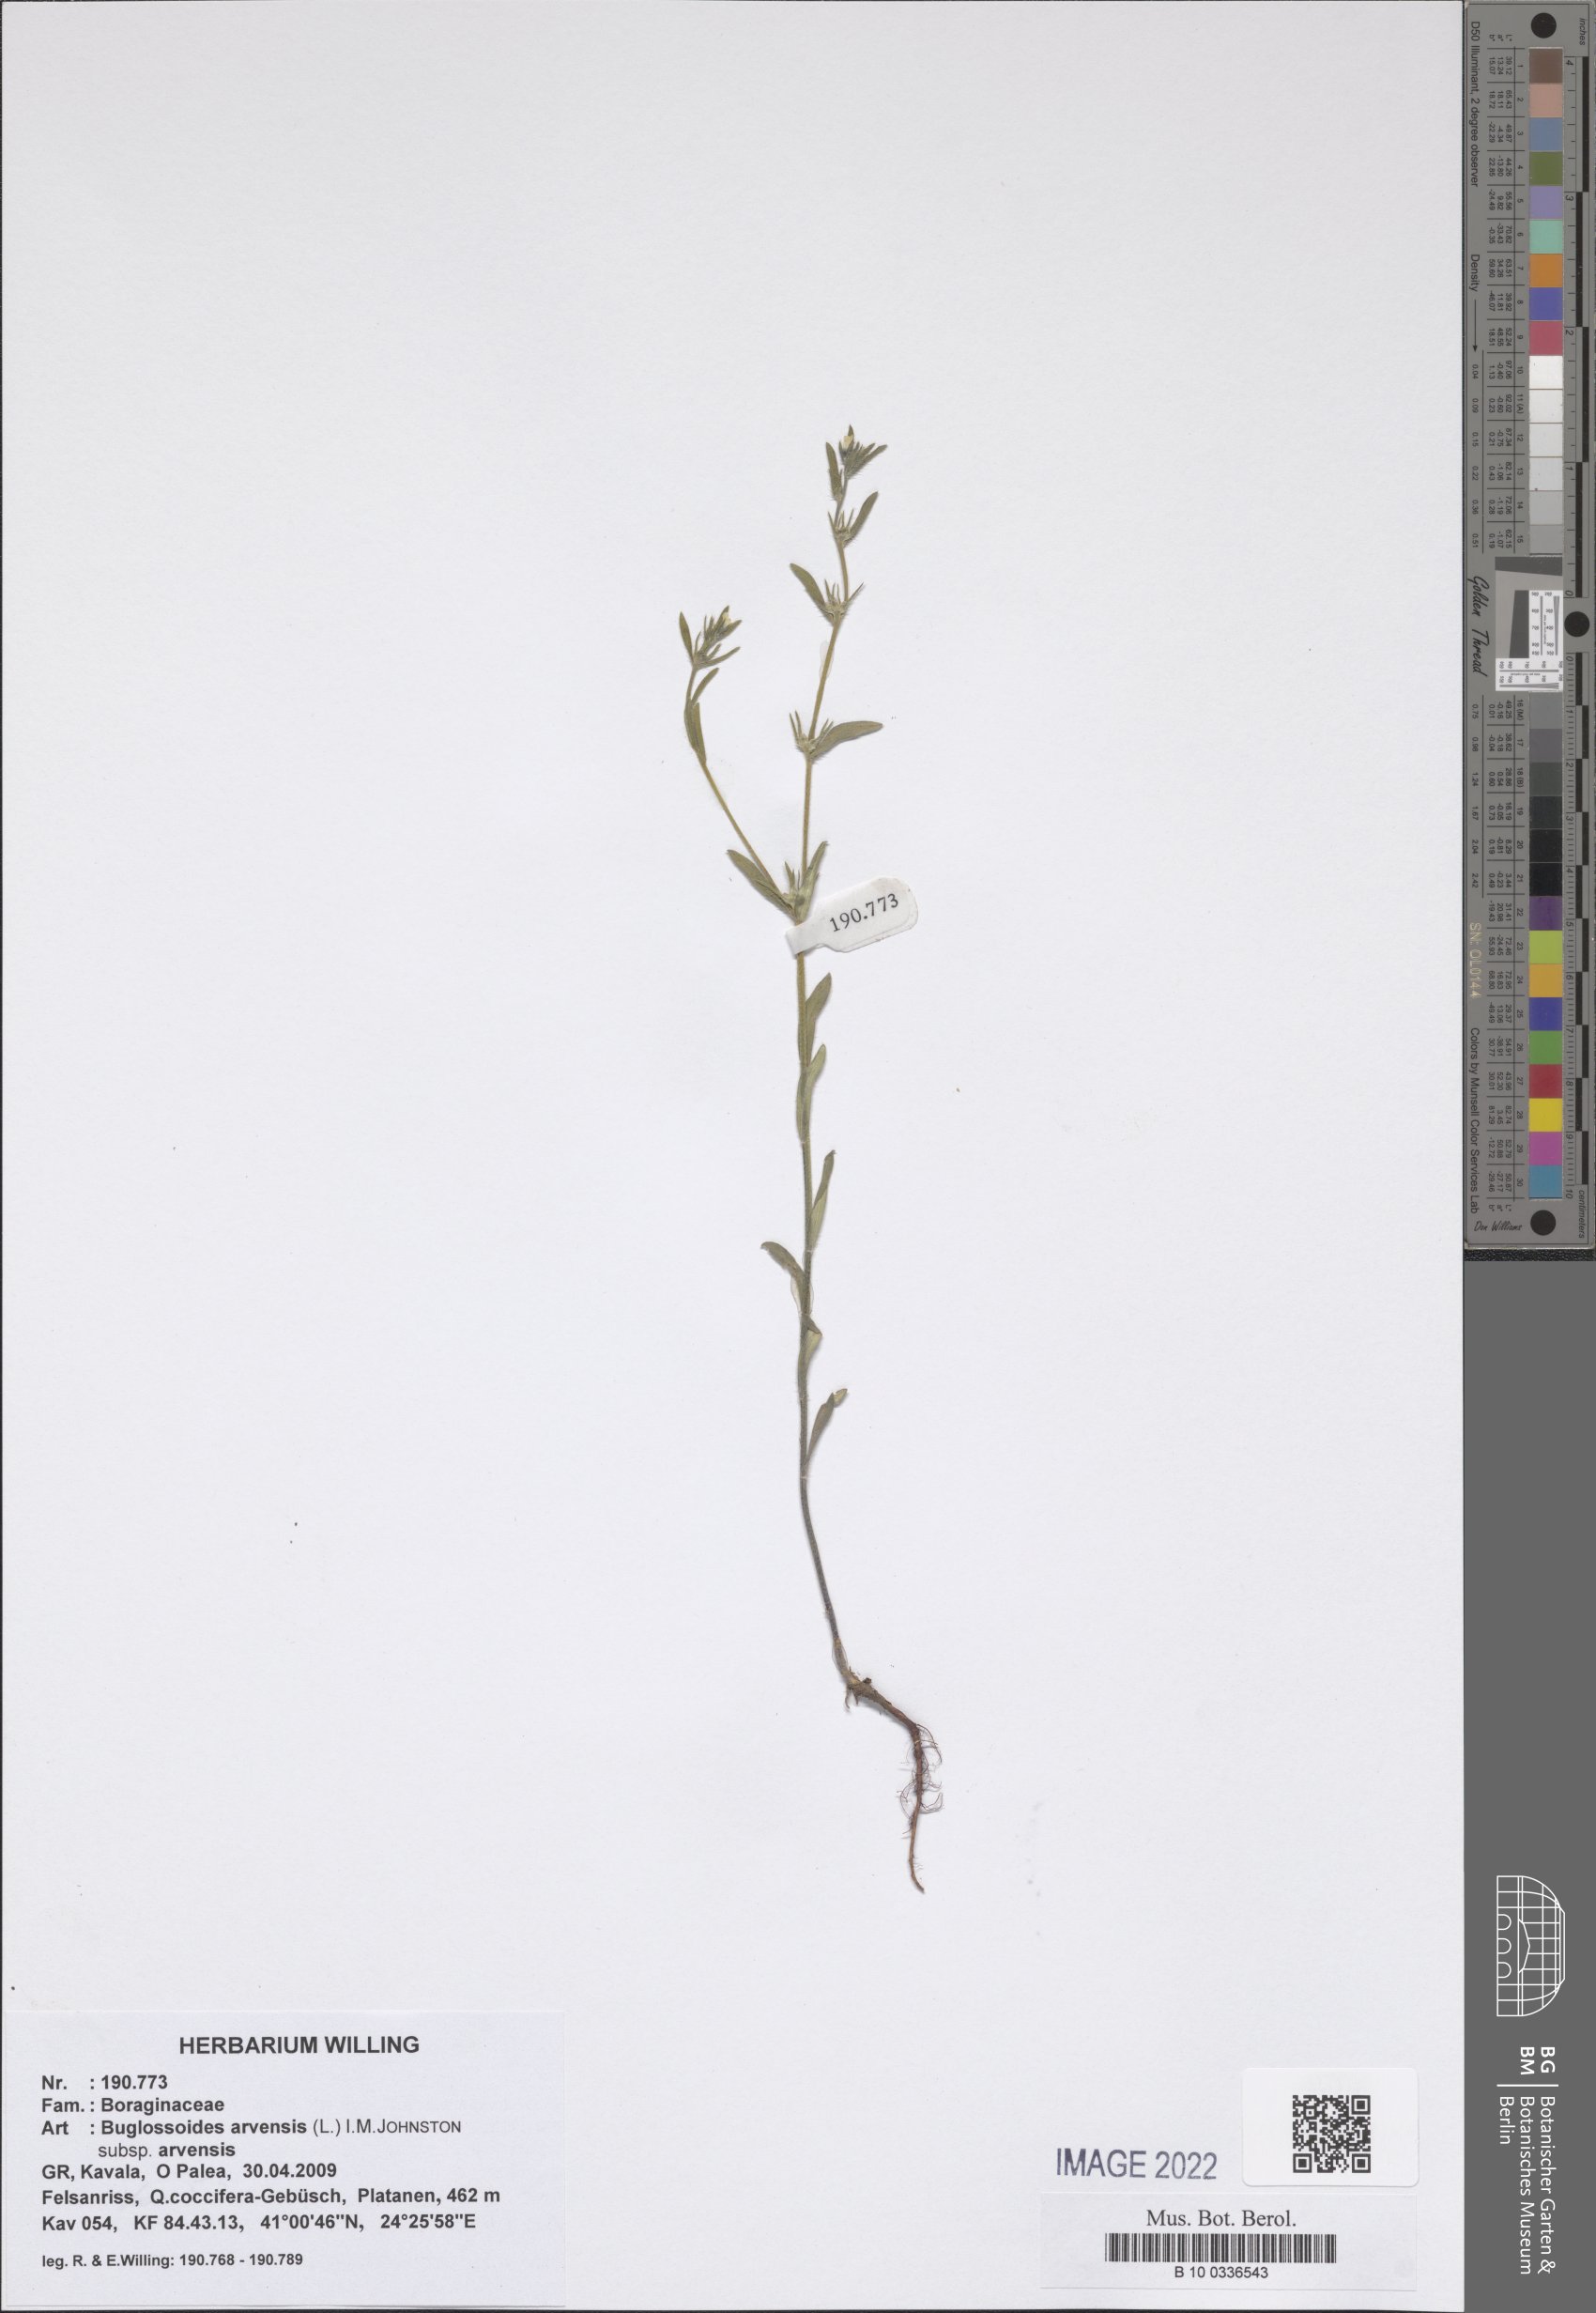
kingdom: Plantae
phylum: Tracheophyta
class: Magnoliopsida
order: Boraginales
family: Boraginaceae
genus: Buglossoides
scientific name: Buglossoides arvensis
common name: Corn gromwell
